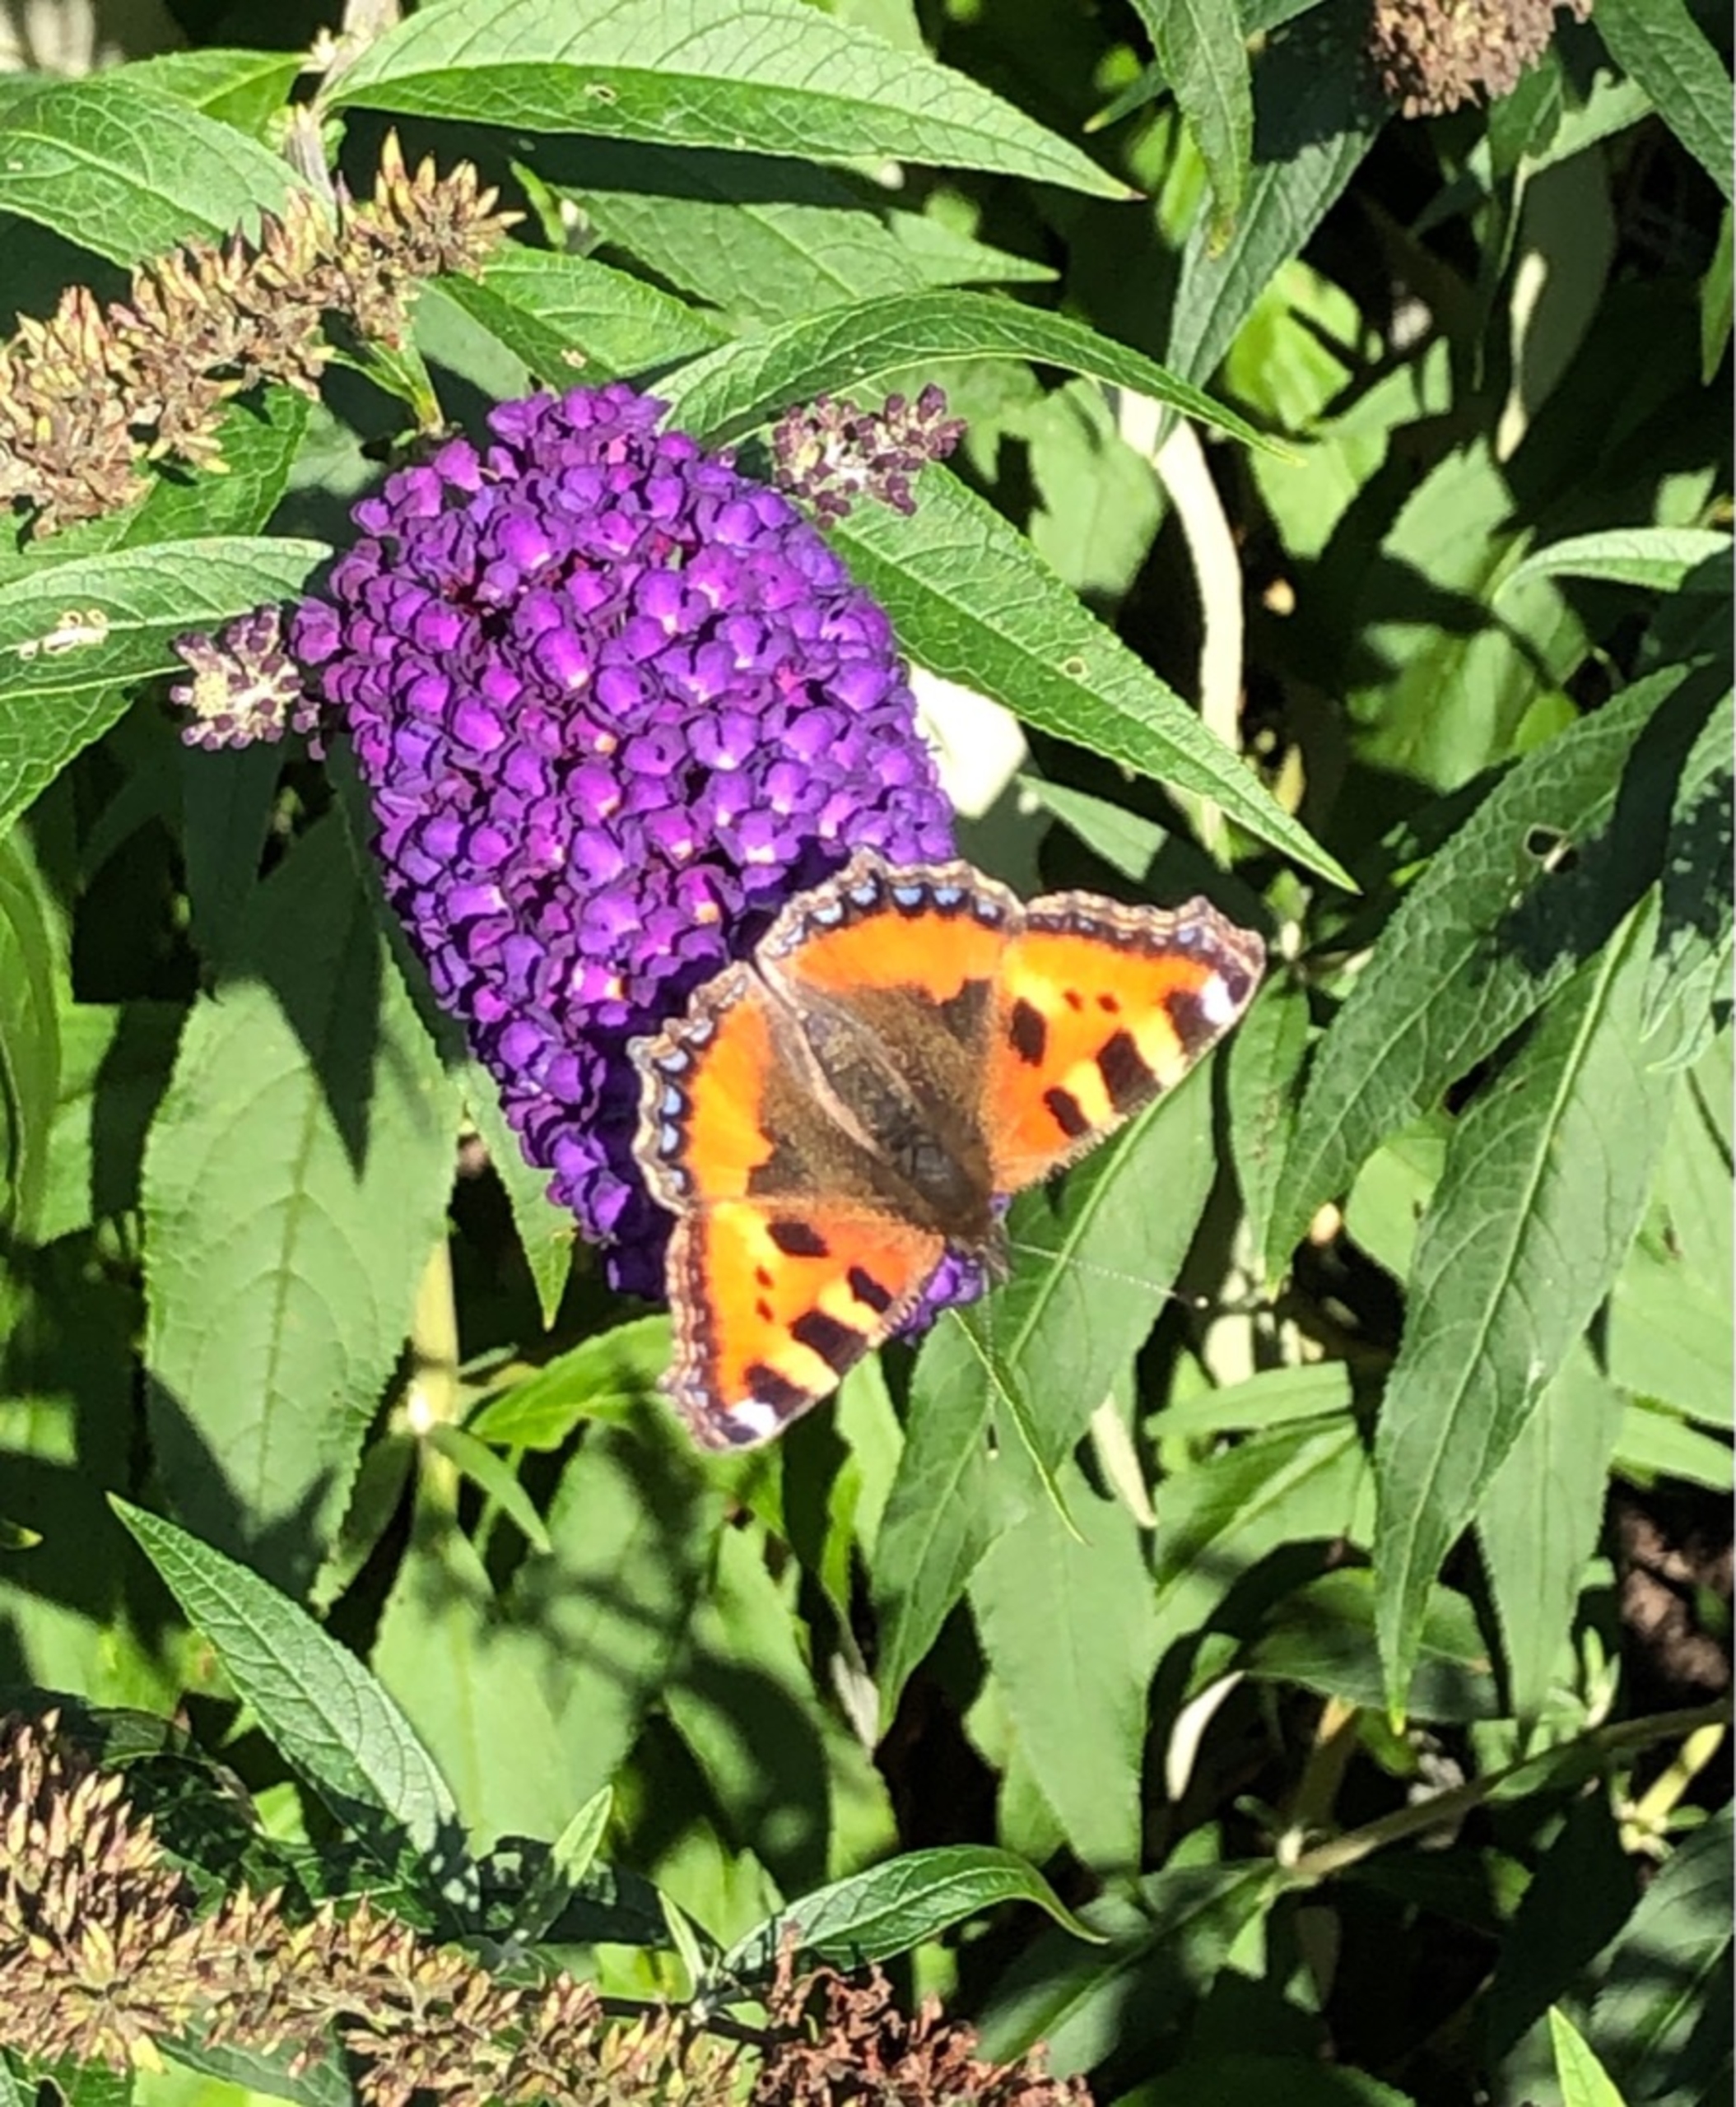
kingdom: Animalia
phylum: Arthropoda
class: Insecta
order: Lepidoptera
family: Nymphalidae
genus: Aglais
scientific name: Aglais urticae
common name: Nældens takvinge
